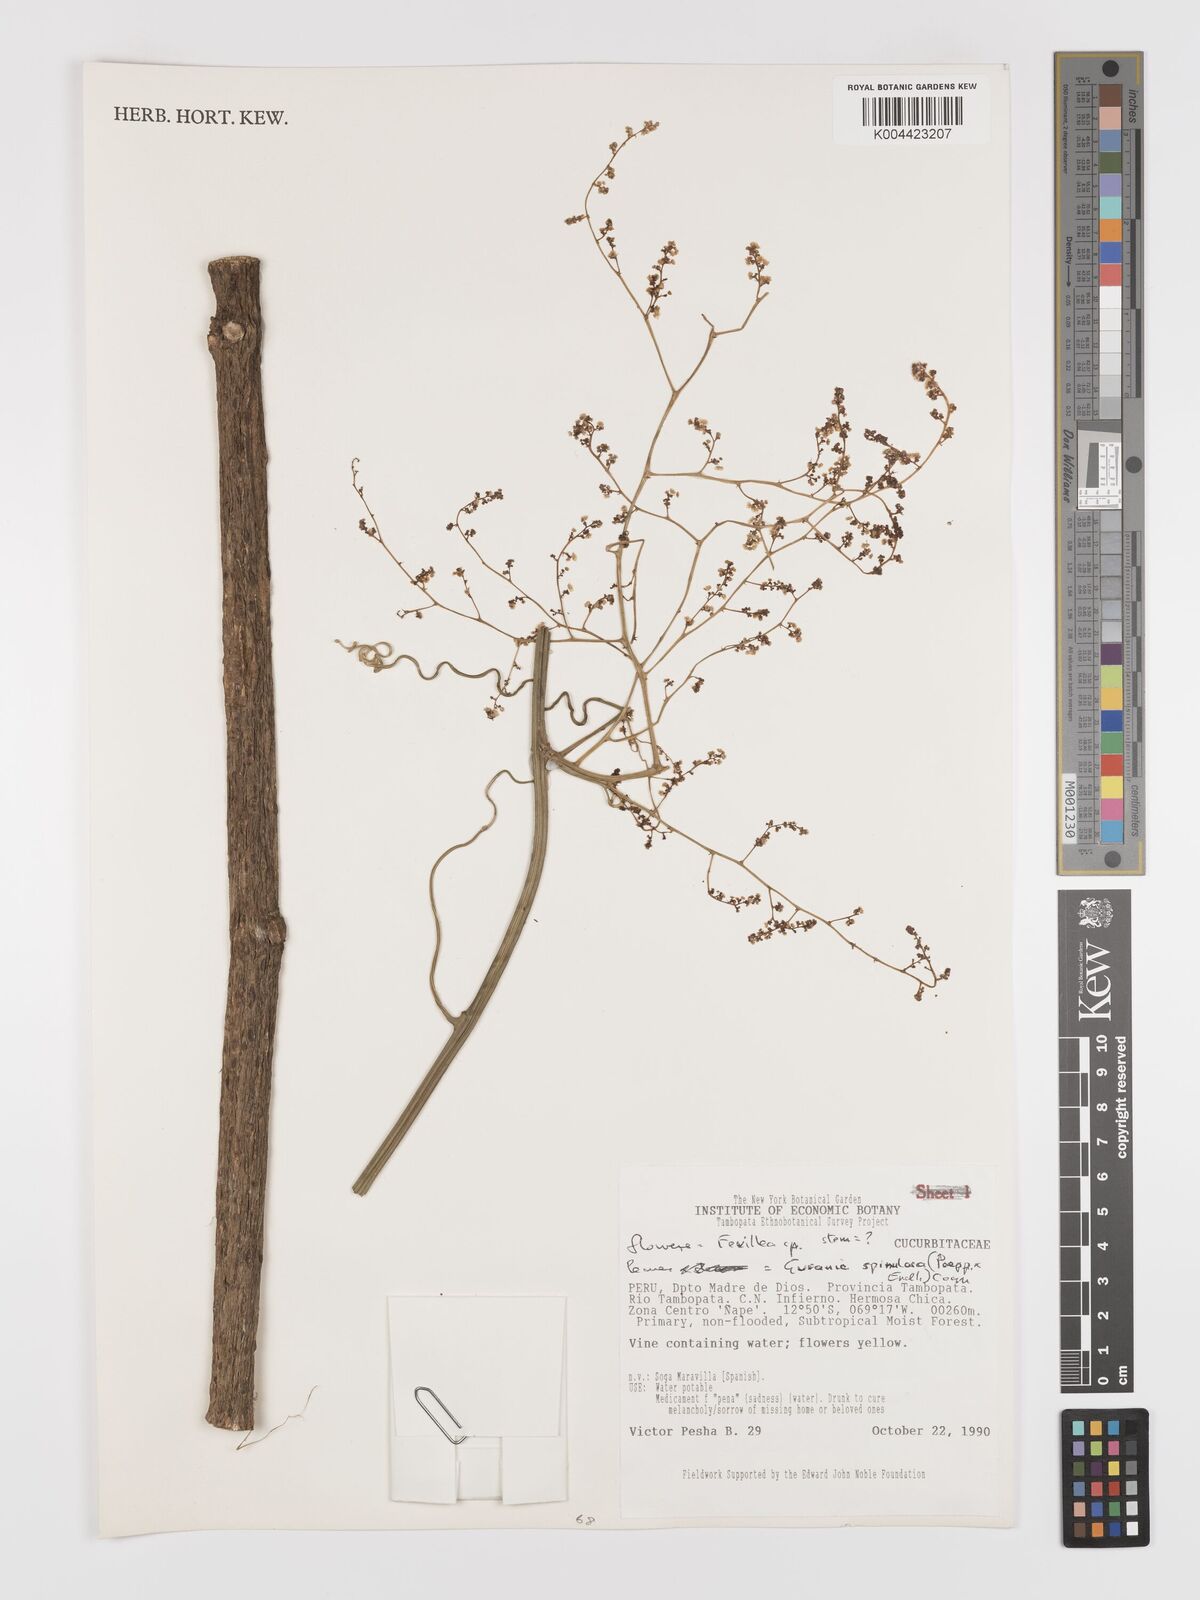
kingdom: Plantae
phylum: Tracheophyta
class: Magnoliopsida
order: Cucurbitales
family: Cucurbitaceae
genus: Fevillea
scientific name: Fevillea
